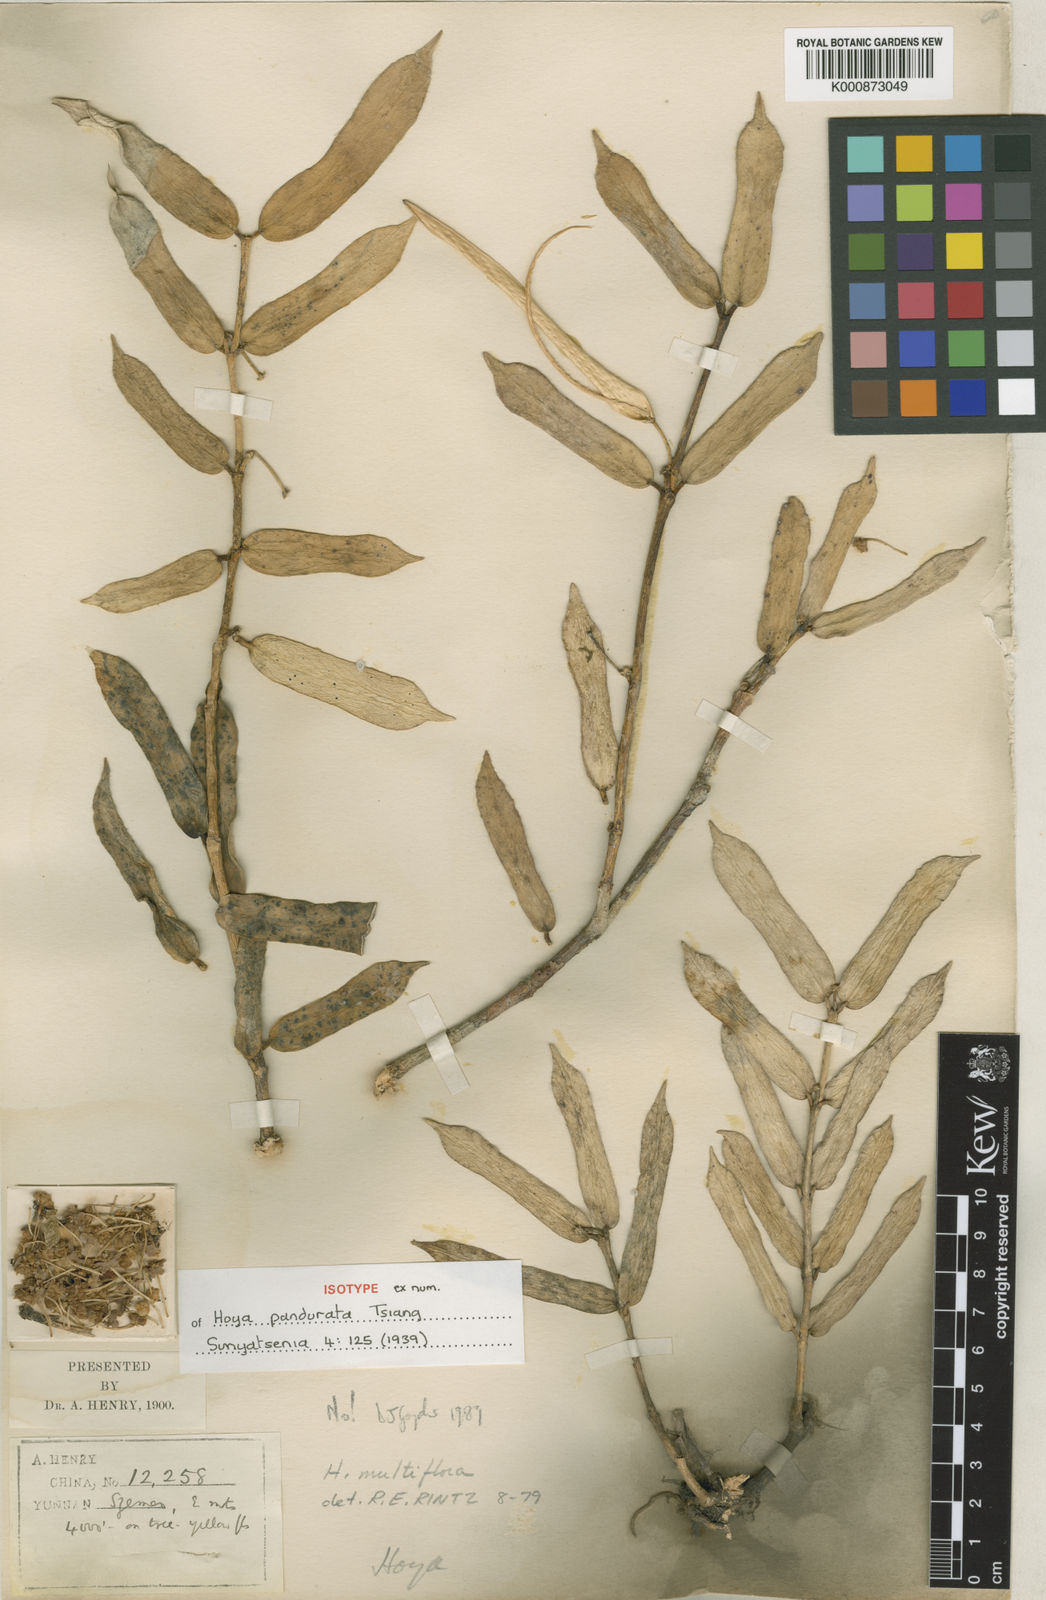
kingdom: Plantae
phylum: Tracheophyta
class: Magnoliopsida
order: Gentianales
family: Apocynaceae
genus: Hoya
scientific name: Hoya pandurata
